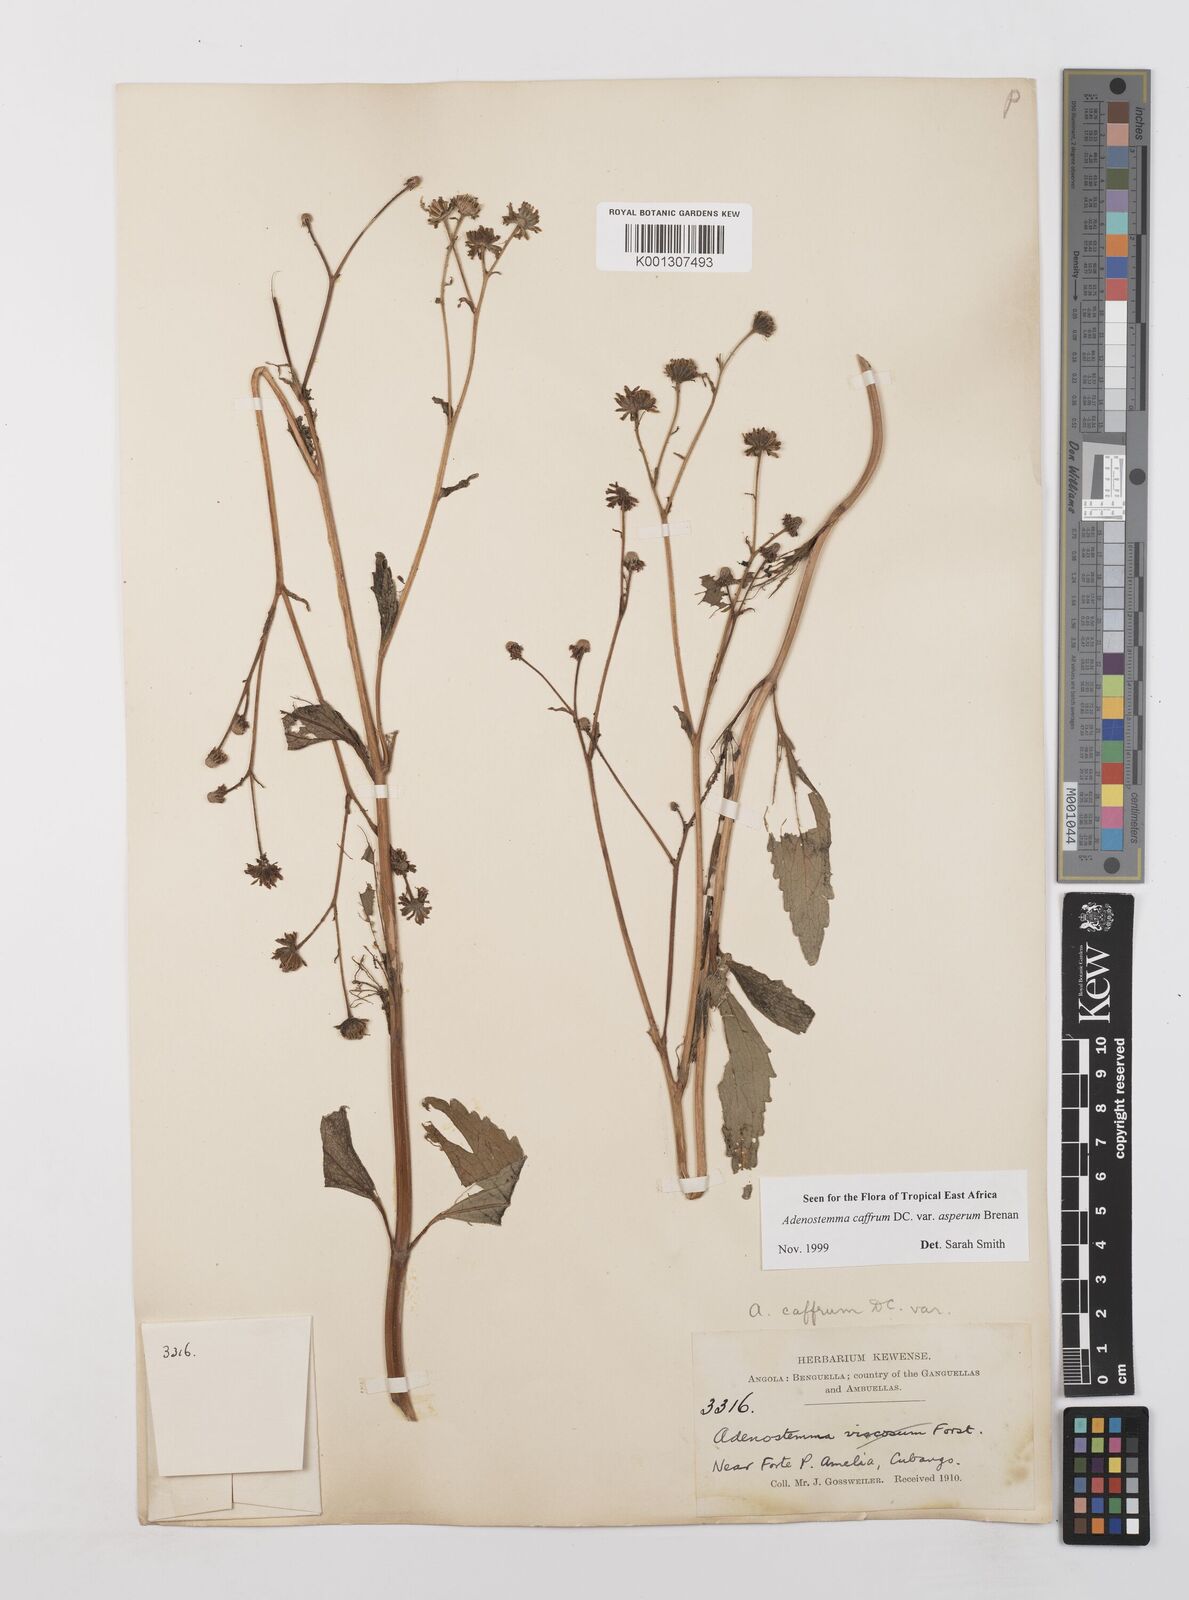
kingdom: Plantae
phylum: Tracheophyta
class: Magnoliopsida
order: Asterales
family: Asteraceae
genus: Adenostemma
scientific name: Adenostemma caffrum
